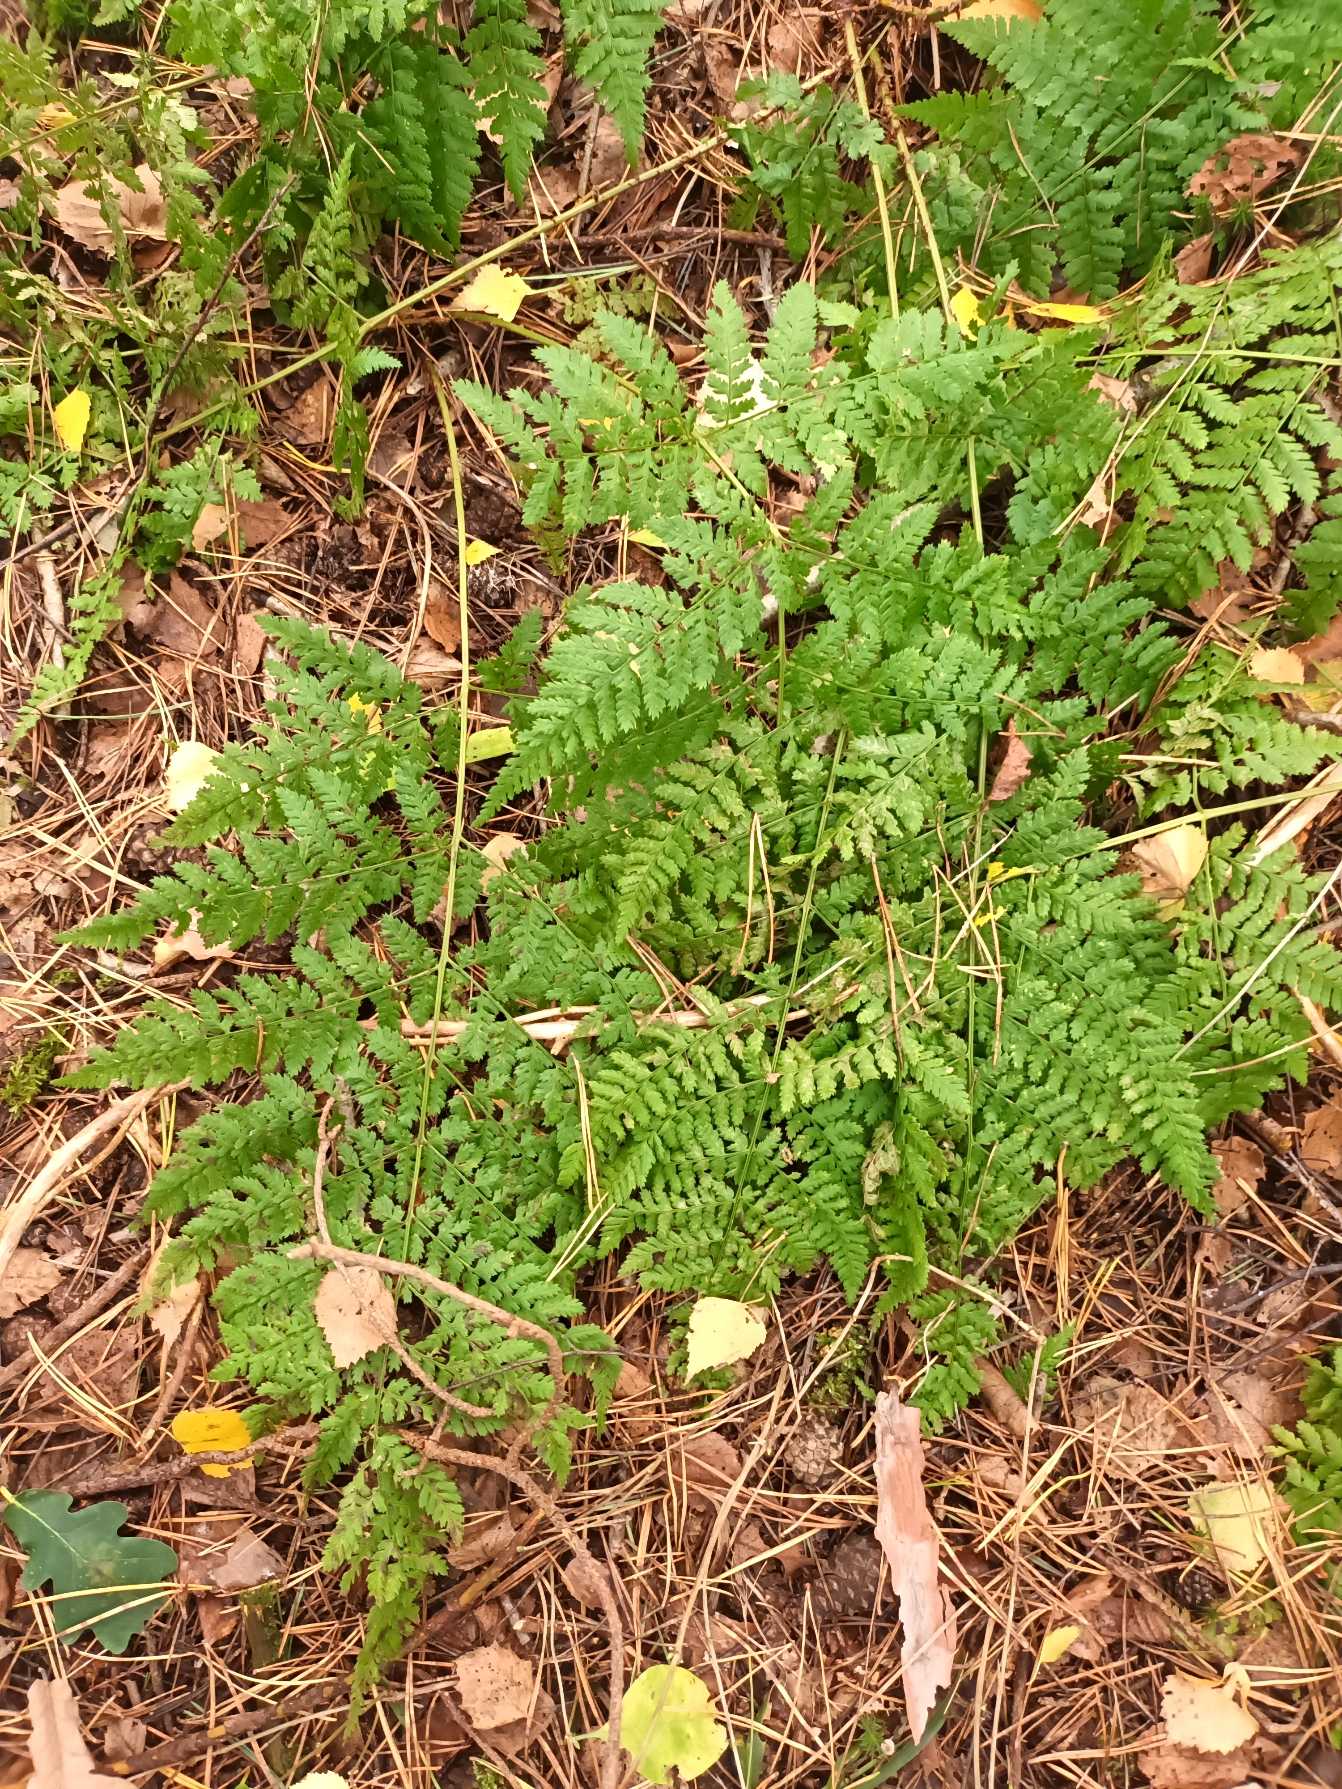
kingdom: Plantae
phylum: Tracheophyta
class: Polypodiopsida
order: Polypodiales
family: Dryopteridaceae
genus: Dryopteris
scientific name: Dryopteris dilatata
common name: Bredbladet mangeløv
